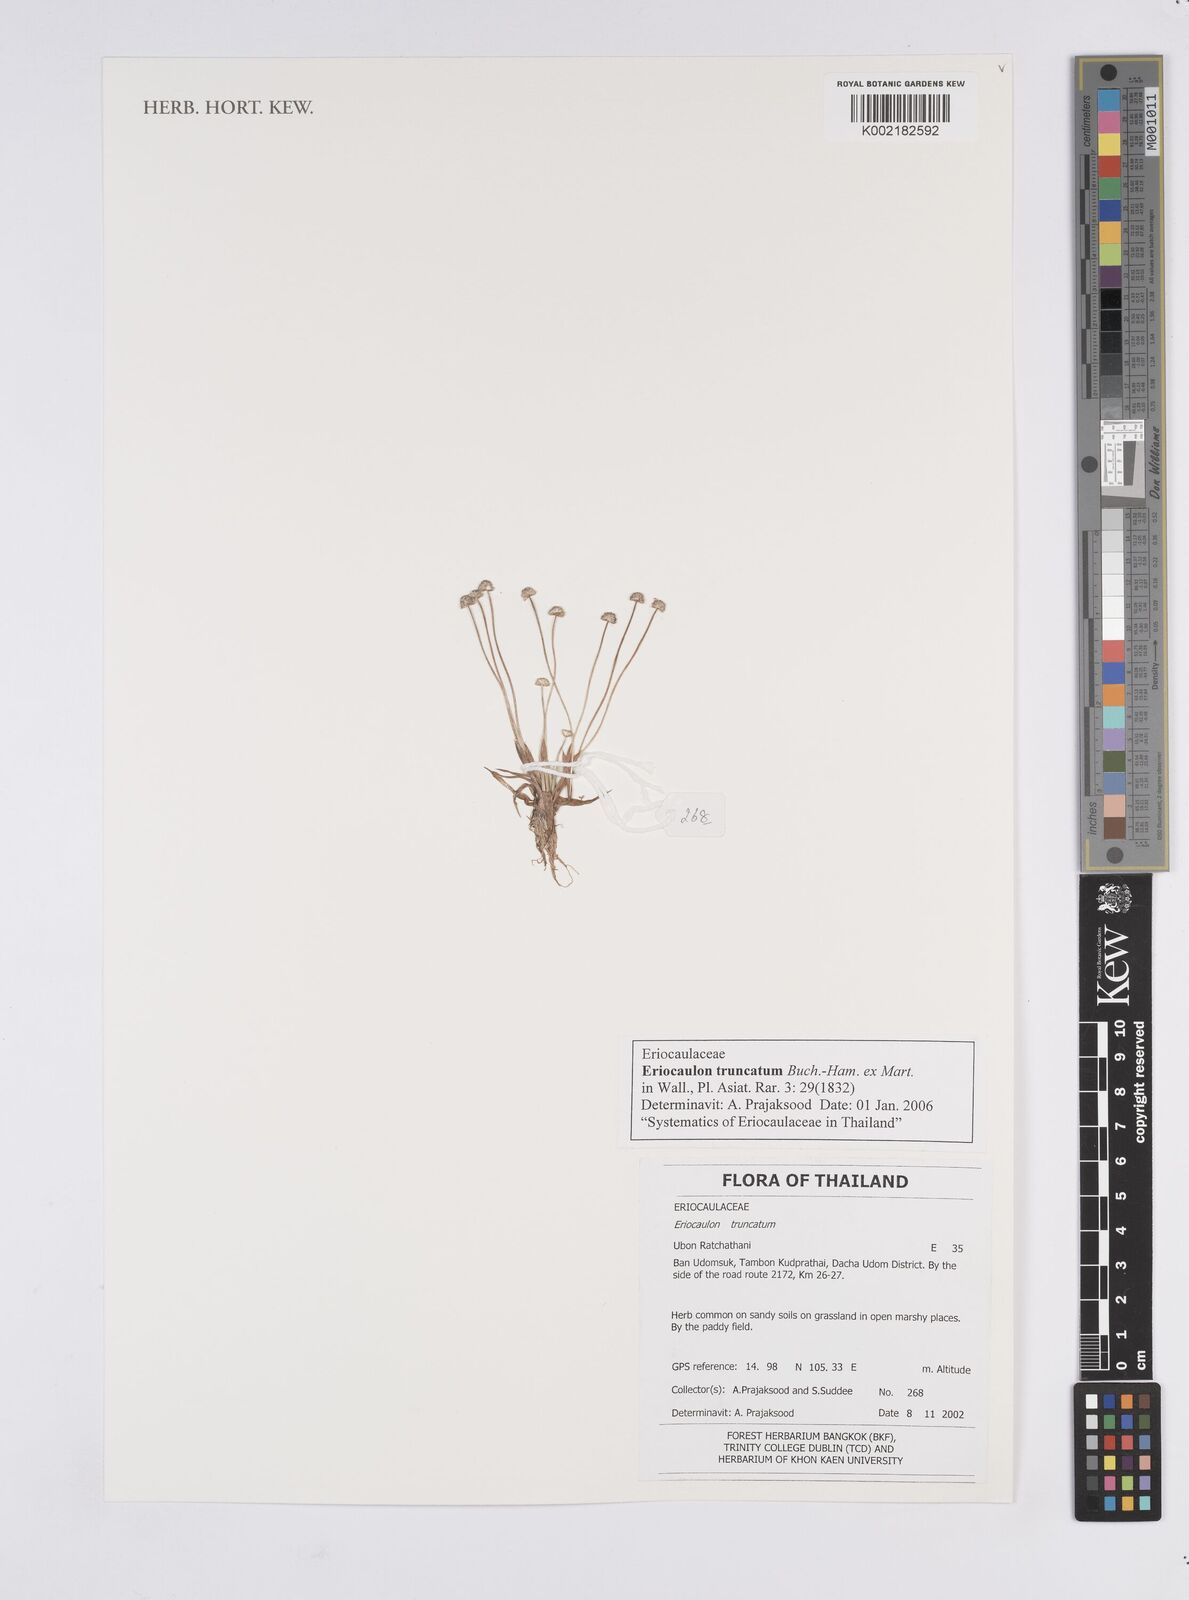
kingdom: Plantae
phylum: Tracheophyta
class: Liliopsida
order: Poales
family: Eriocaulaceae
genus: Eriocaulon
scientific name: Eriocaulon truncatum
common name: Short pipe-wort
